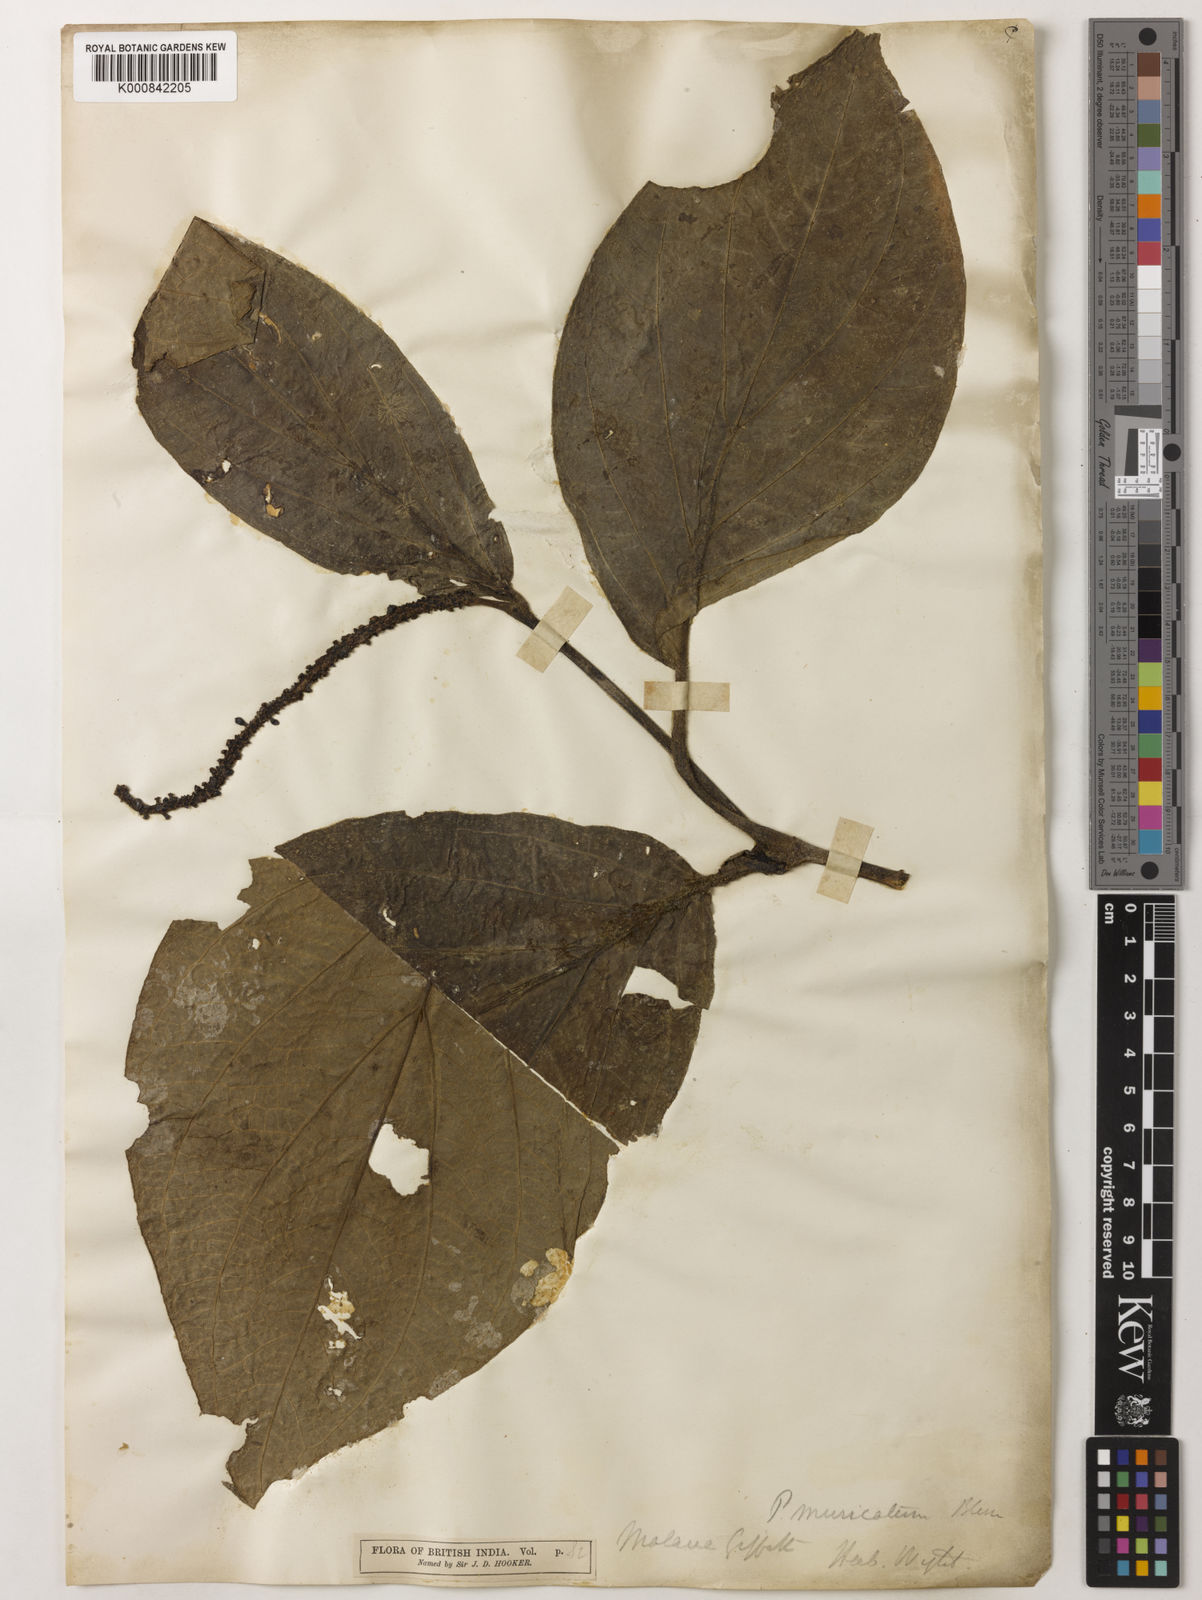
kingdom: Plantae
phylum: Tracheophyta
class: Magnoliopsida
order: Piperales
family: Piperaceae
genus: Piper
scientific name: Piper muricatum
